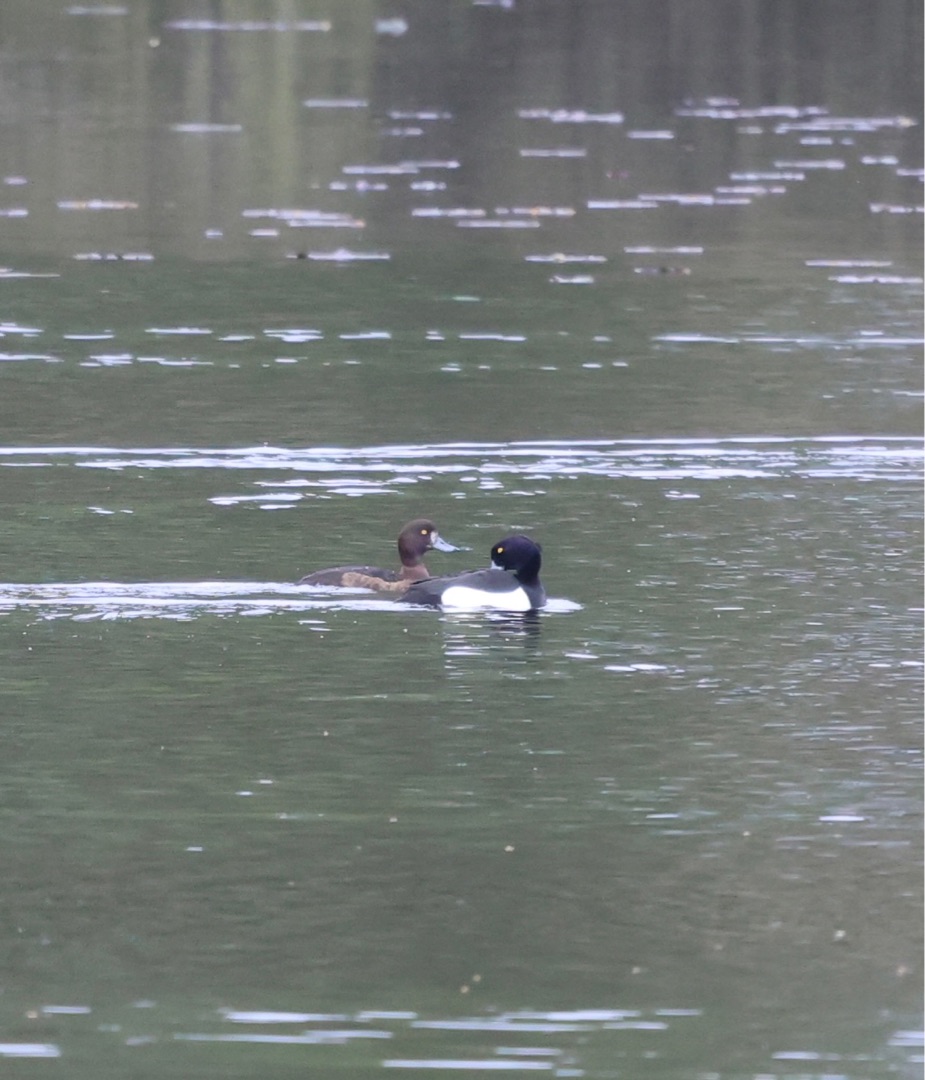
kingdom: Animalia
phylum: Chordata
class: Aves
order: Anseriformes
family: Anatidae
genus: Aythya
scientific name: Aythya fuligula
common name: Troldand
